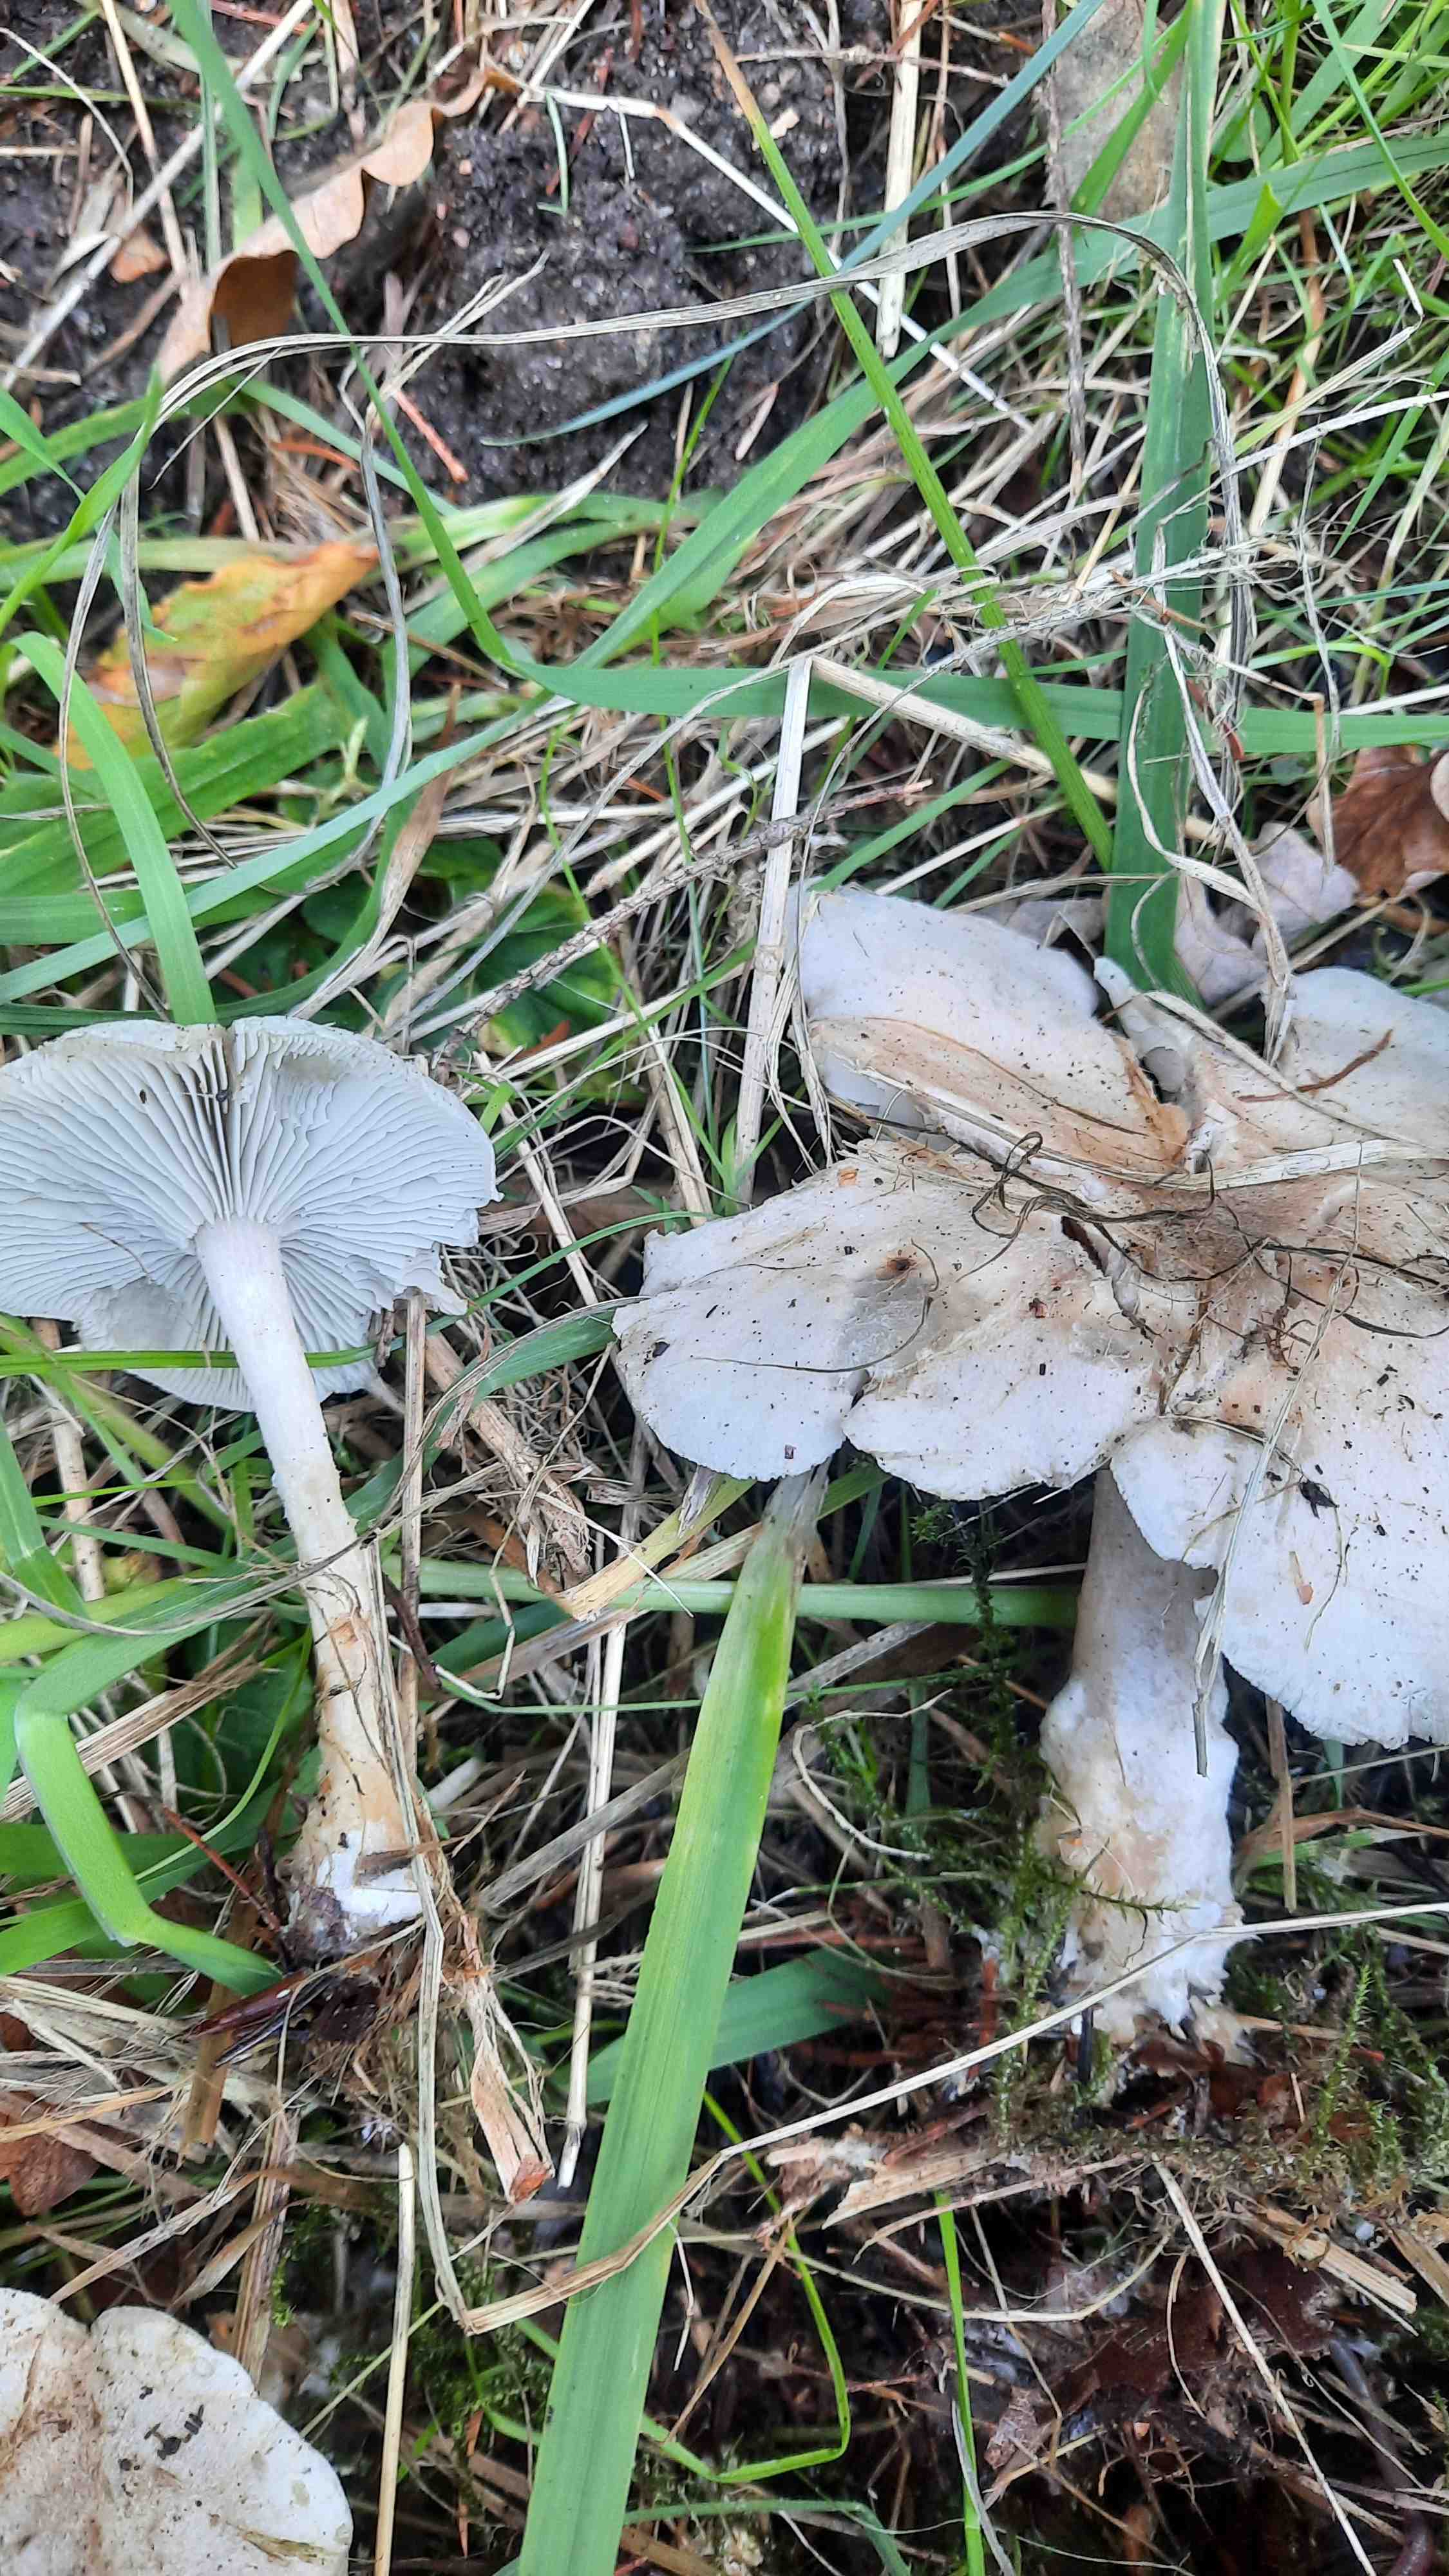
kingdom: Fungi
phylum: Basidiomycota
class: Agaricomycetes
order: Agaricales
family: Tricholomataceae
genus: Clitocybe
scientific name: Clitocybe odora
